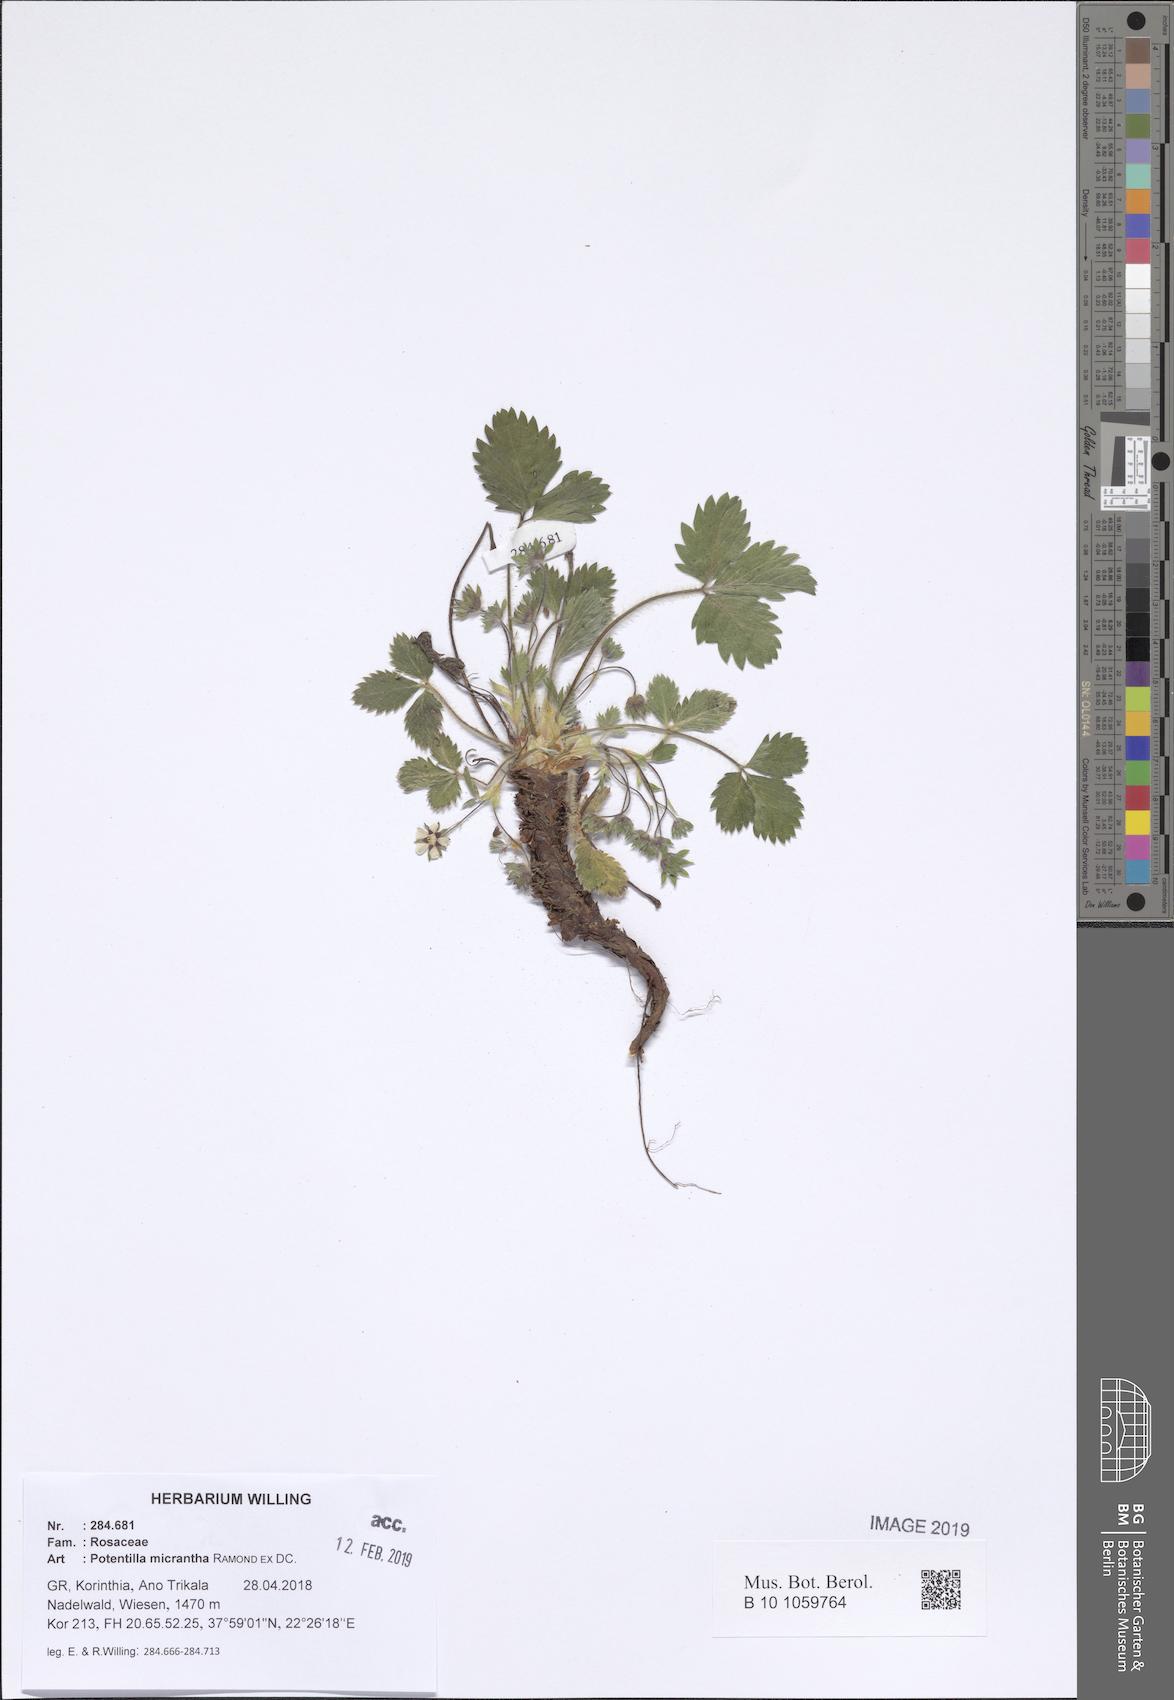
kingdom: Plantae
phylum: Tracheophyta
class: Magnoliopsida
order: Rosales
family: Rosaceae
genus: Potentilla
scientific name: Potentilla micrantha
